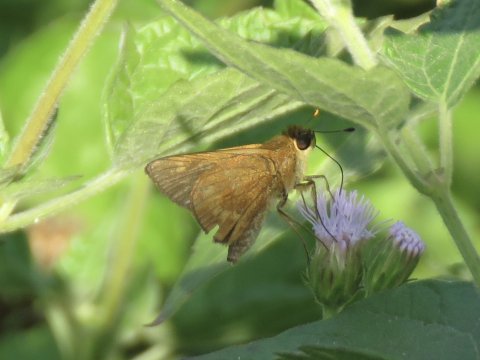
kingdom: Animalia
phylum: Arthropoda
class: Insecta
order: Lepidoptera
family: Hesperiidae
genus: Wallengrenia
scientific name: Wallengrenia otho
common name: Southern Broken-Dash
